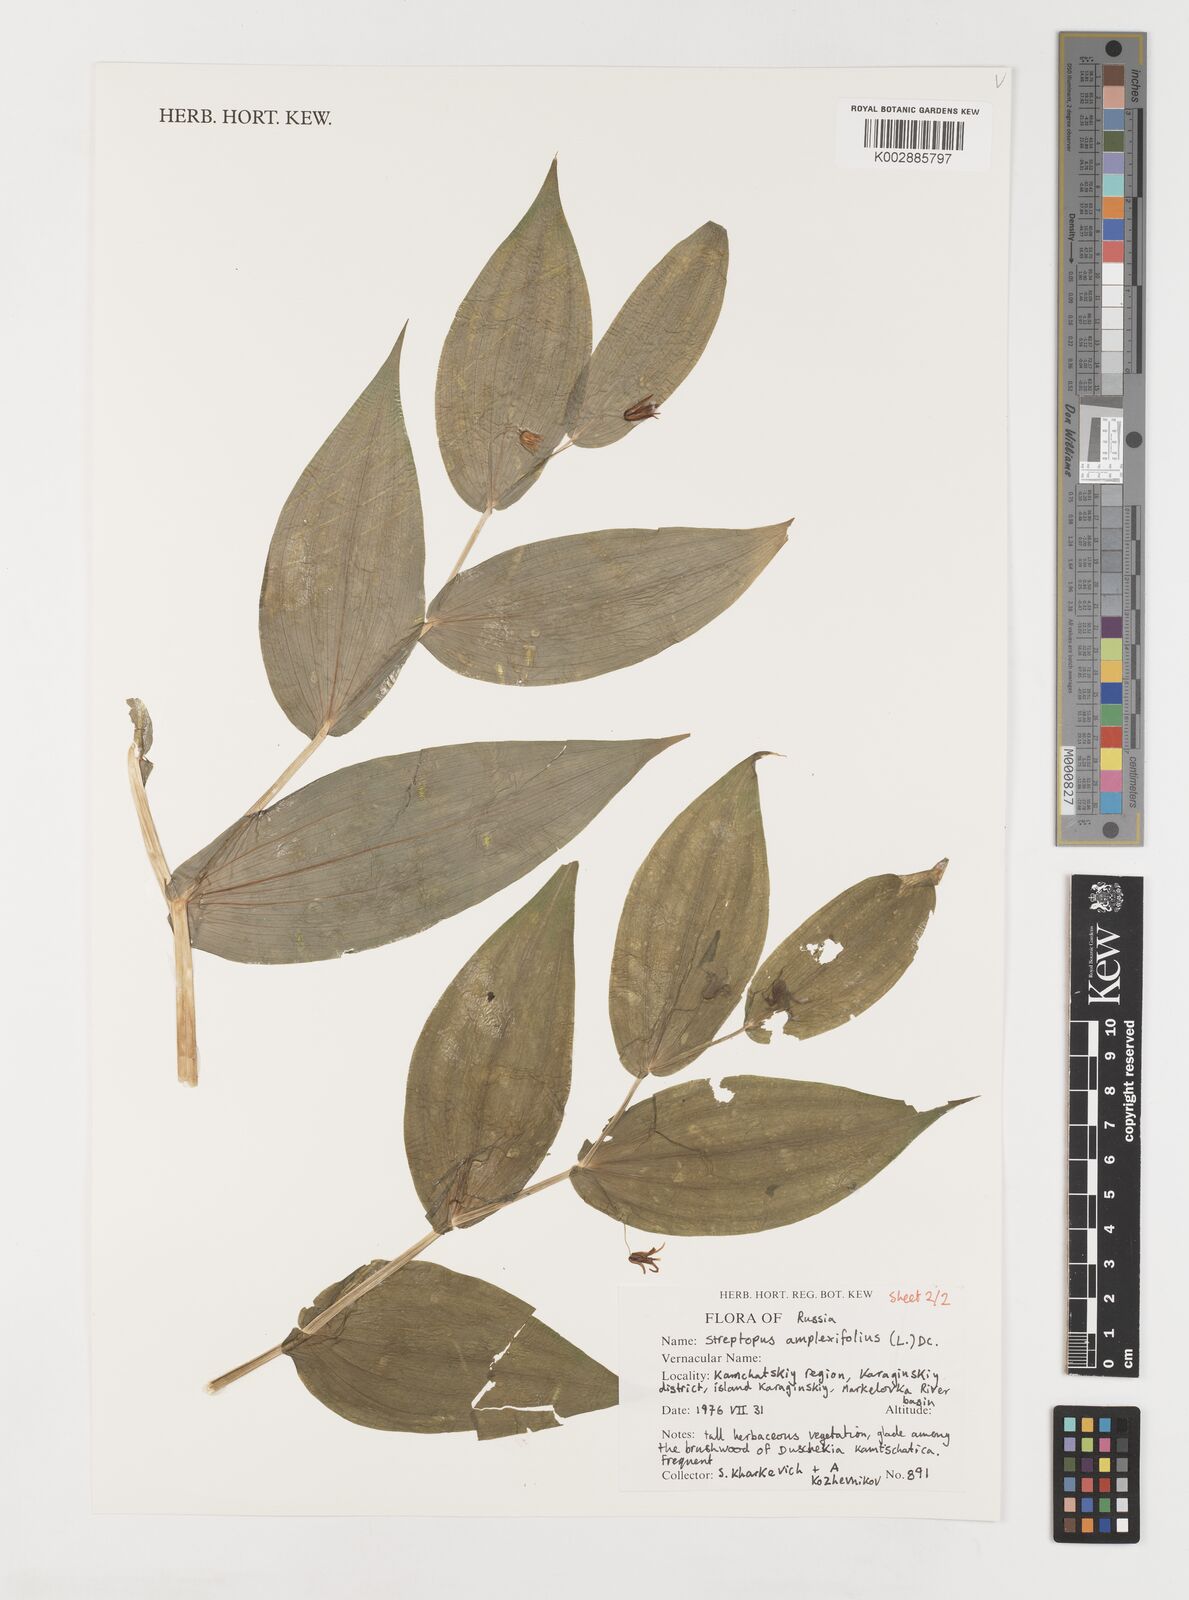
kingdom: Plantae
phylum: Tracheophyta
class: Liliopsida
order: Liliales
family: Liliaceae
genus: Streptopus
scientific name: Streptopus amplexifolius
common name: Clasp twisted stalk
